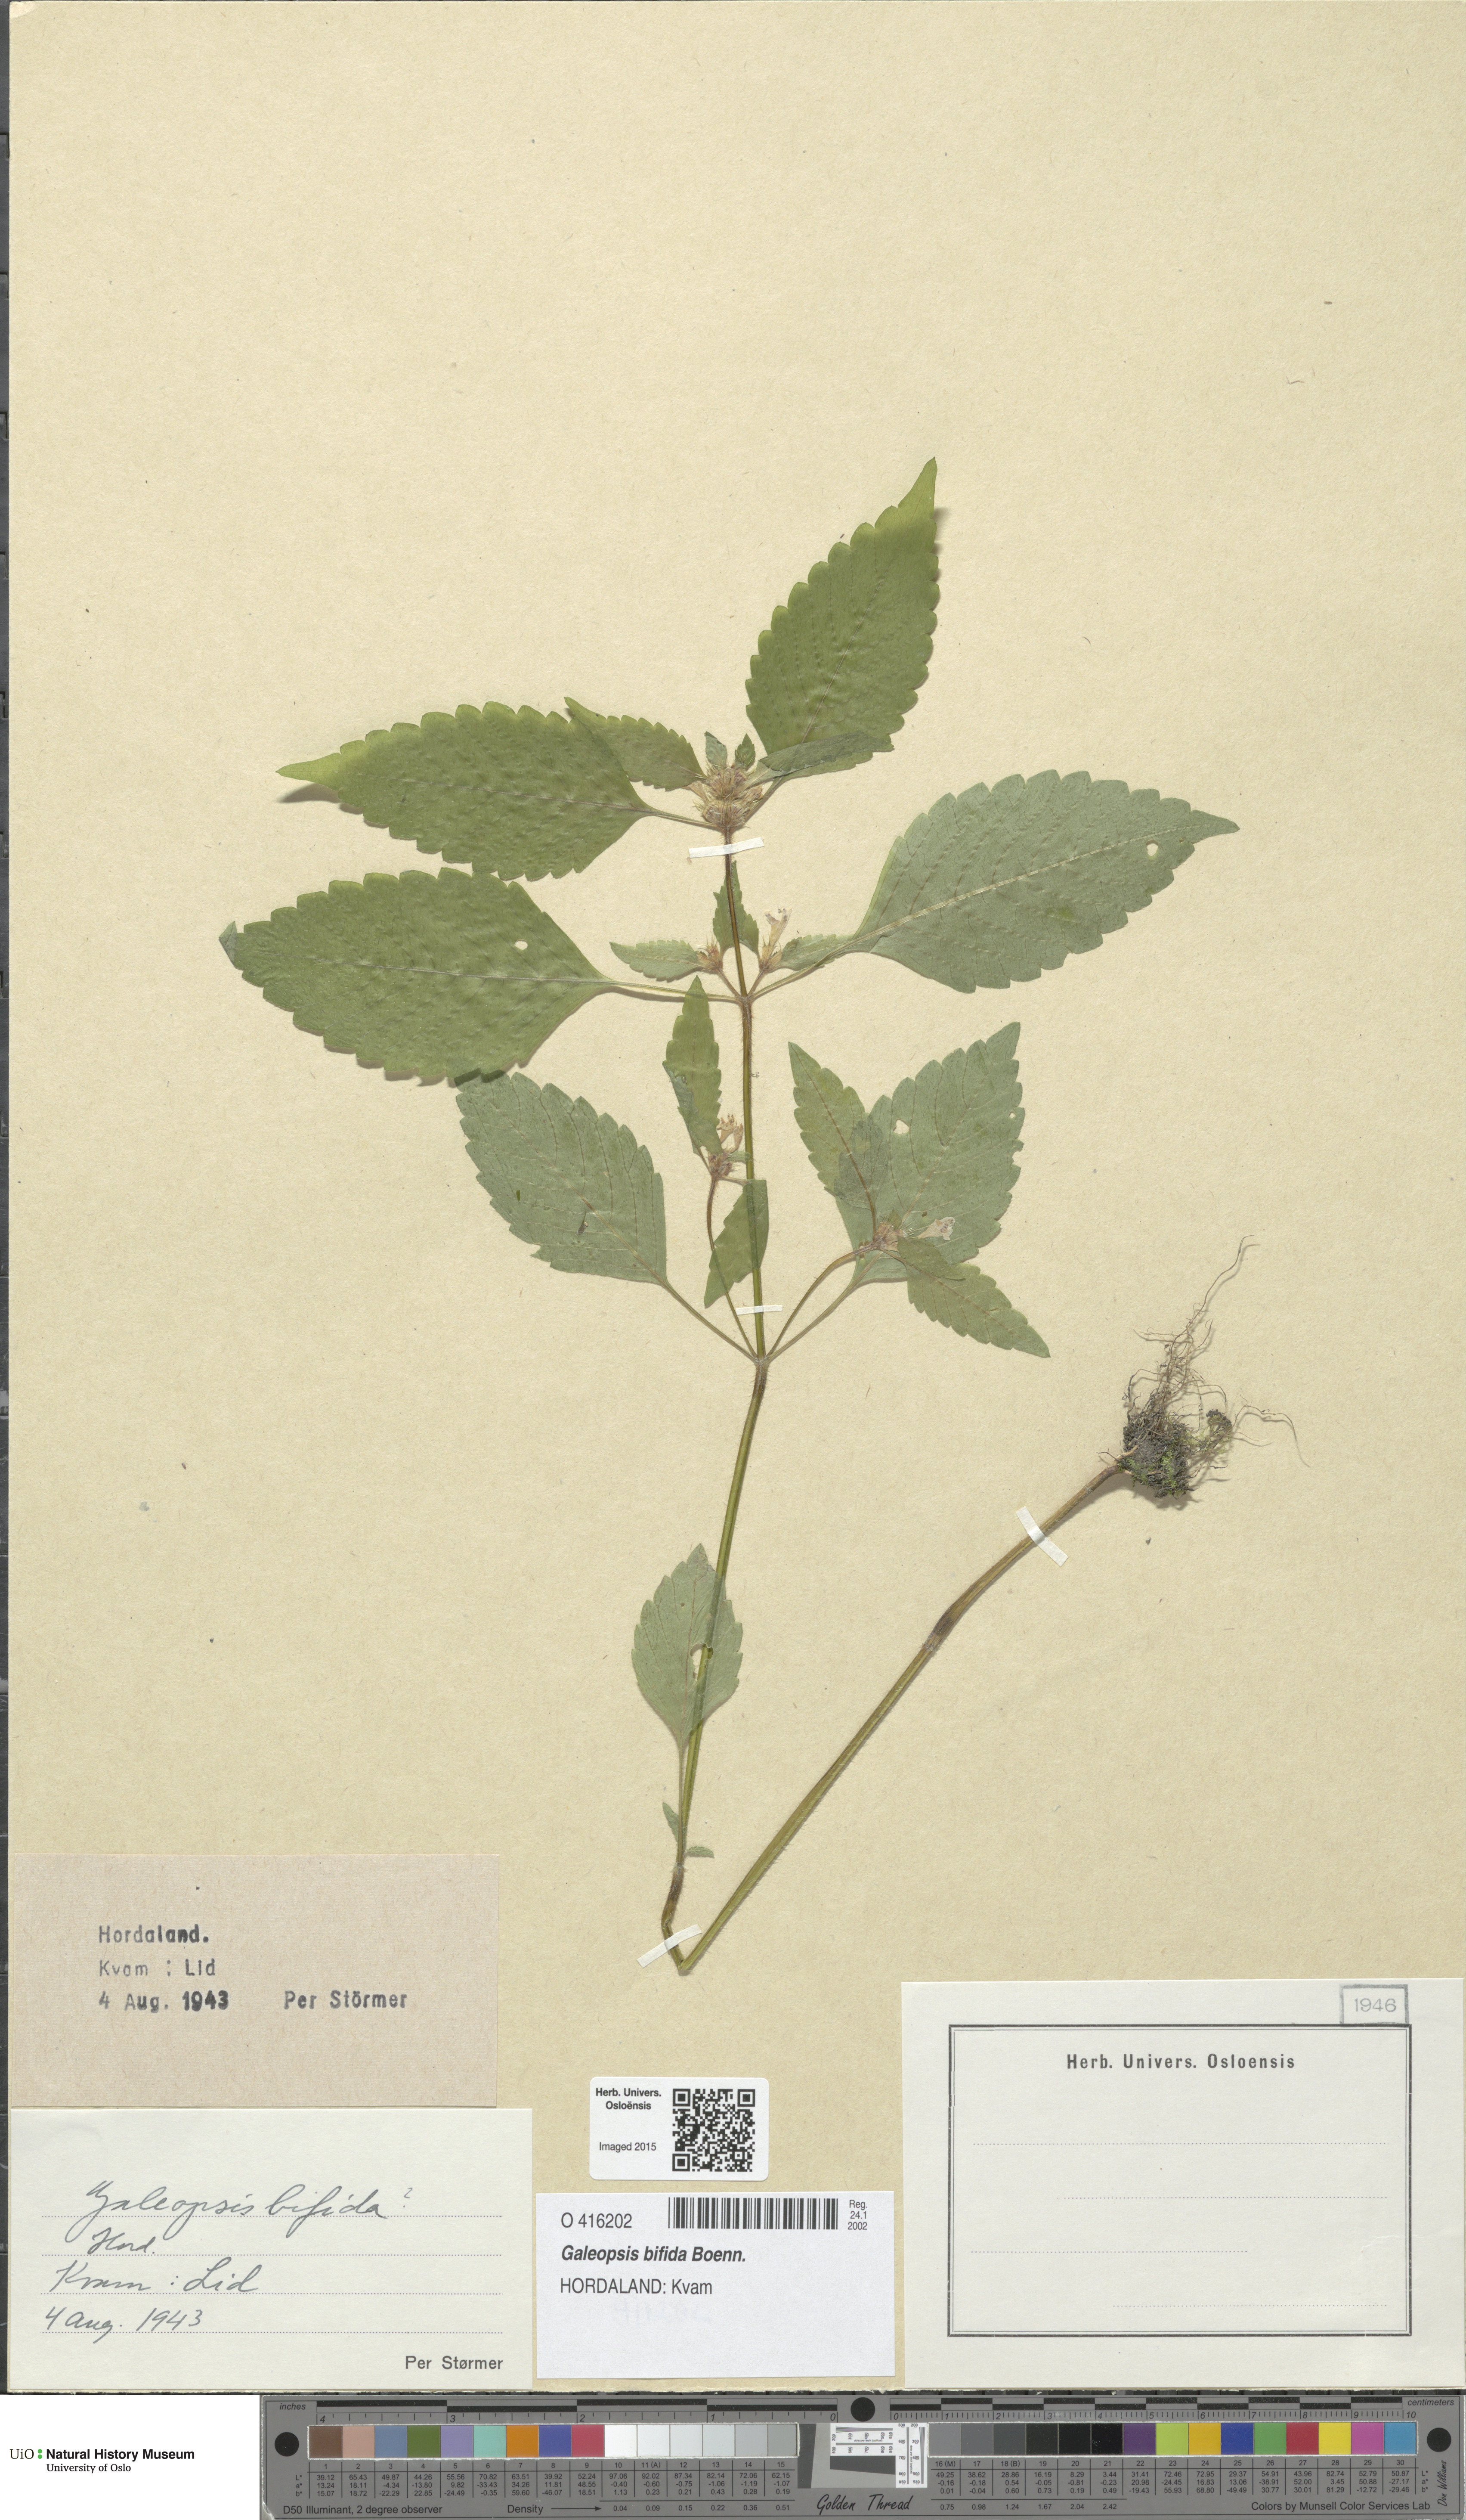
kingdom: Plantae
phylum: Tracheophyta
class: Magnoliopsida
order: Lamiales
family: Lamiaceae
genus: Galeopsis
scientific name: Galeopsis bifida
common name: Bifid hemp-nettle
